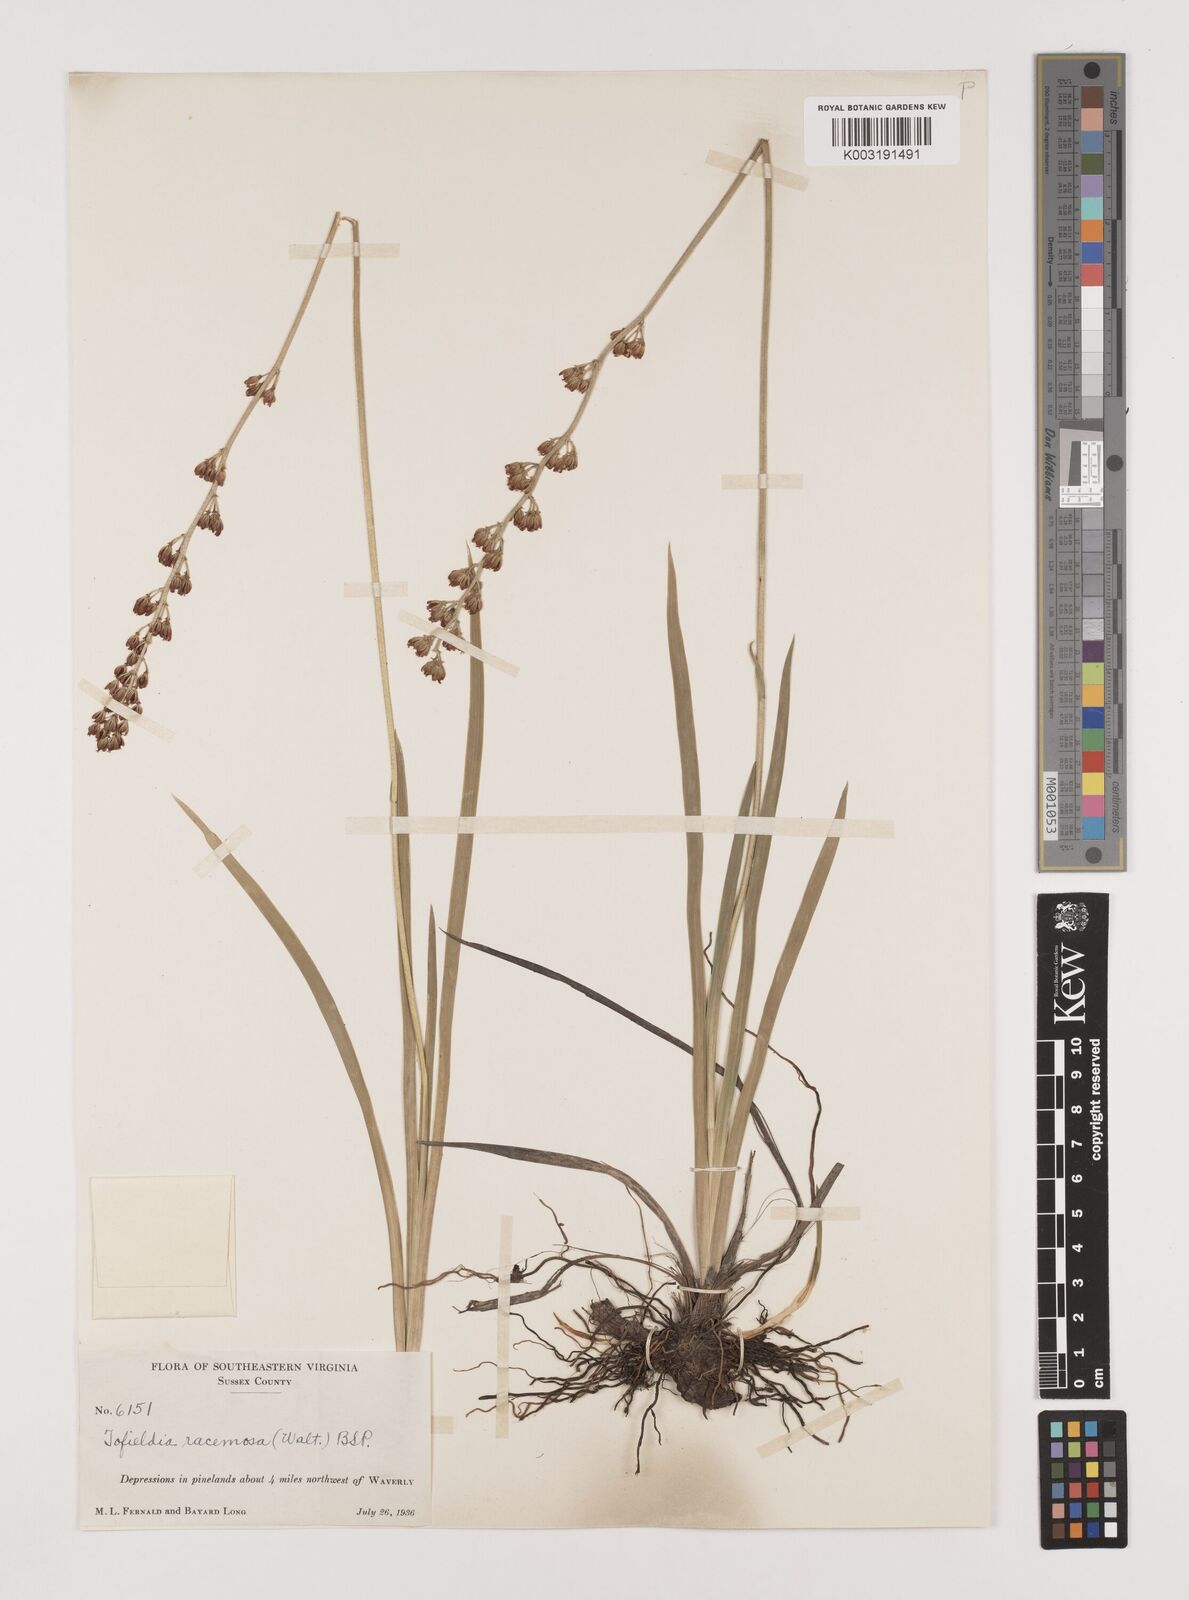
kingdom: Plantae
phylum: Tracheophyta
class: Liliopsida
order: Alismatales
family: Tofieldiaceae
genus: Triantha
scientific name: Triantha racemosa
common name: Coastal false asphodel
